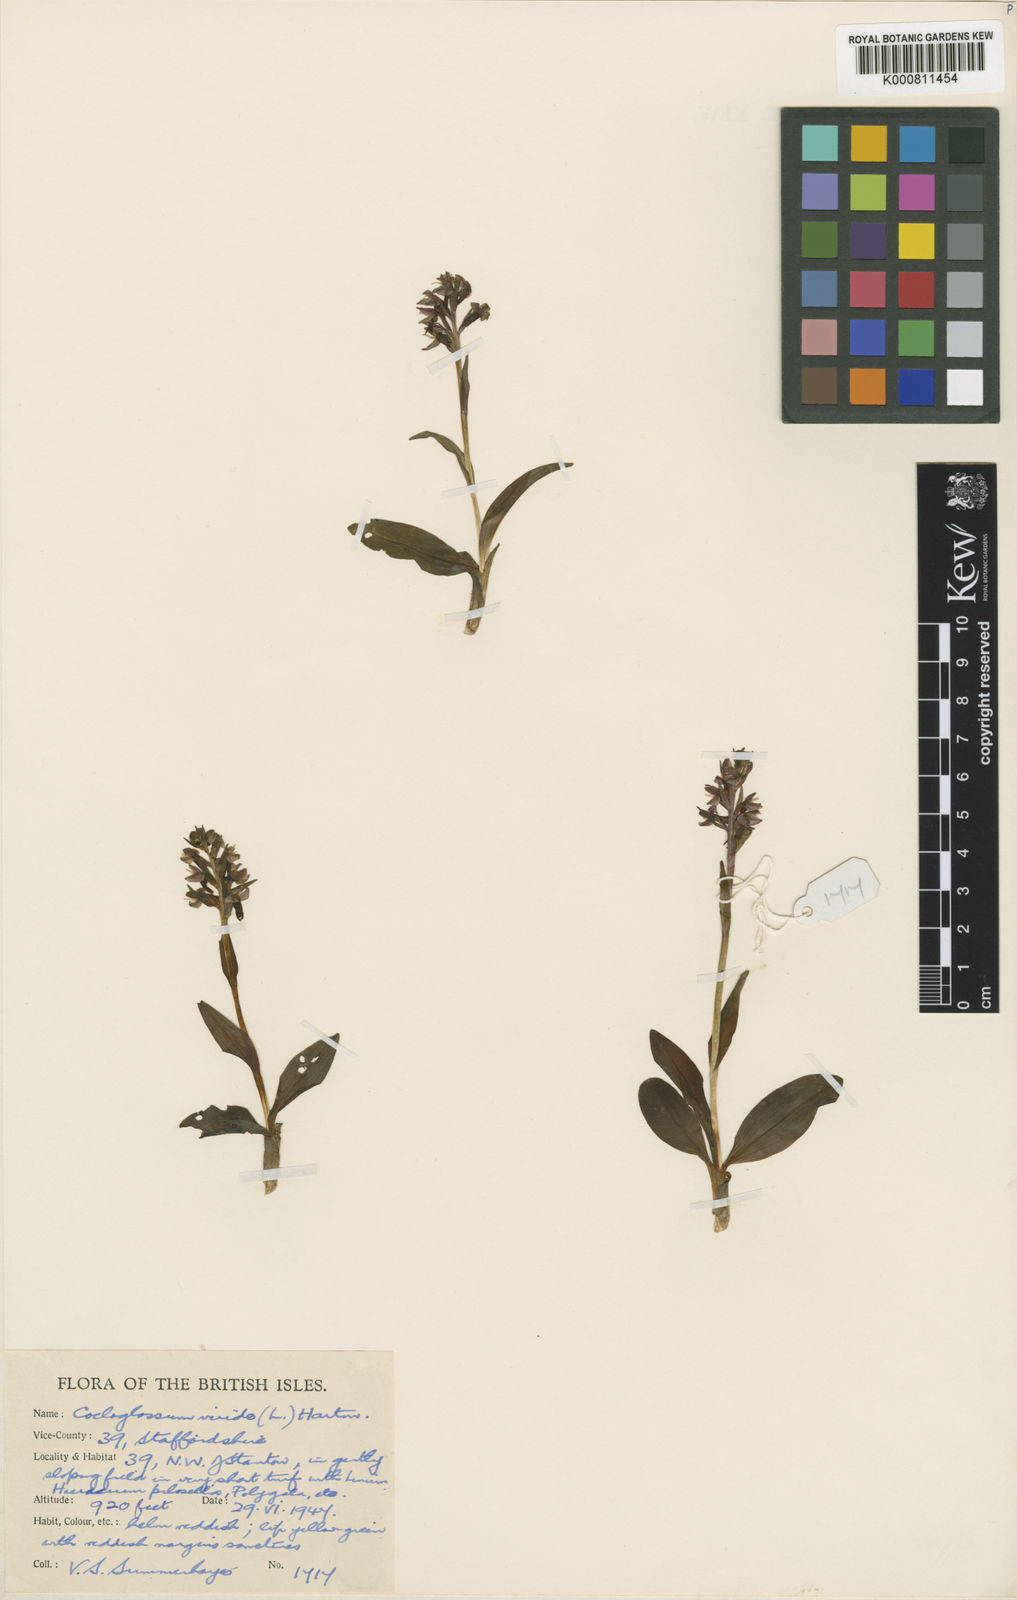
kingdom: Plantae
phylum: Tracheophyta
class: Liliopsida
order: Asparagales
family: Orchidaceae
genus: Dactylorhiza
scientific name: Dactylorhiza viridis
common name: Longbract frog orchid
